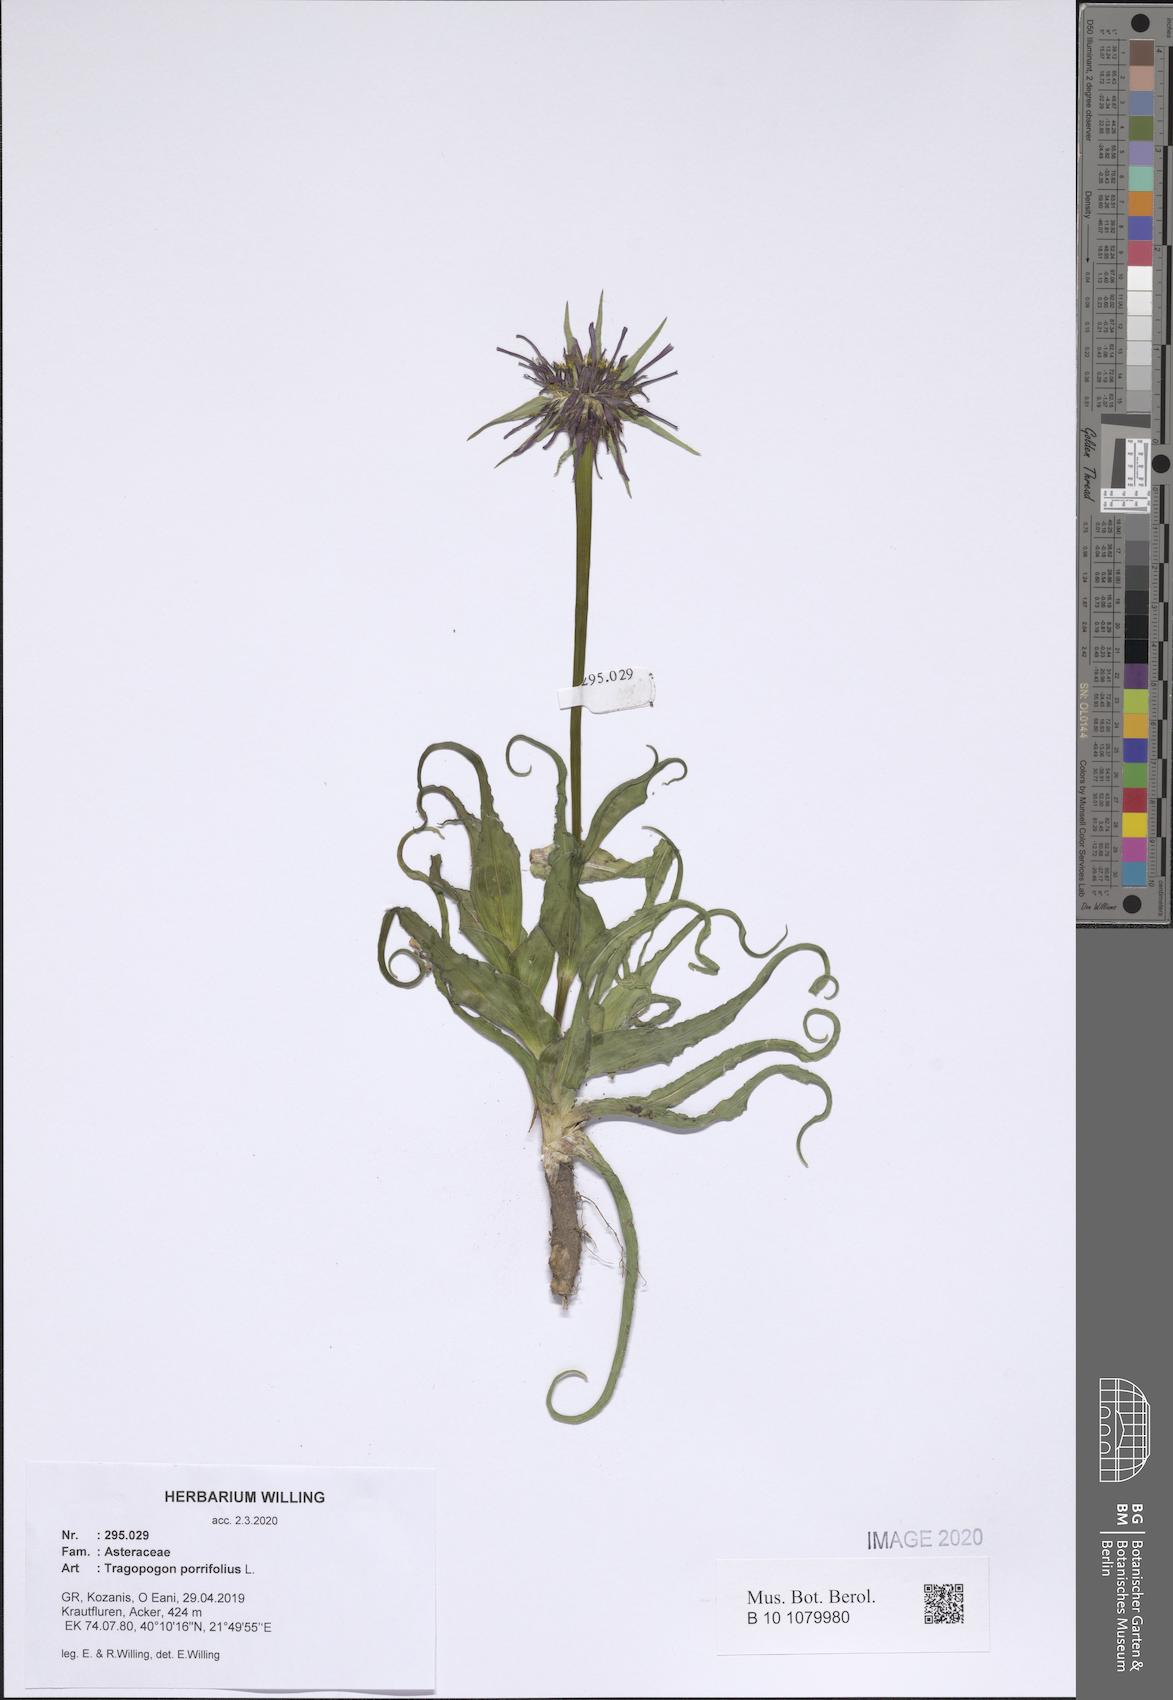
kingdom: Plantae
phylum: Tracheophyta
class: Magnoliopsida
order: Asterales
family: Asteraceae
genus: Tragopogon
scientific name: Tragopogon porrifolius
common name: Salsify
